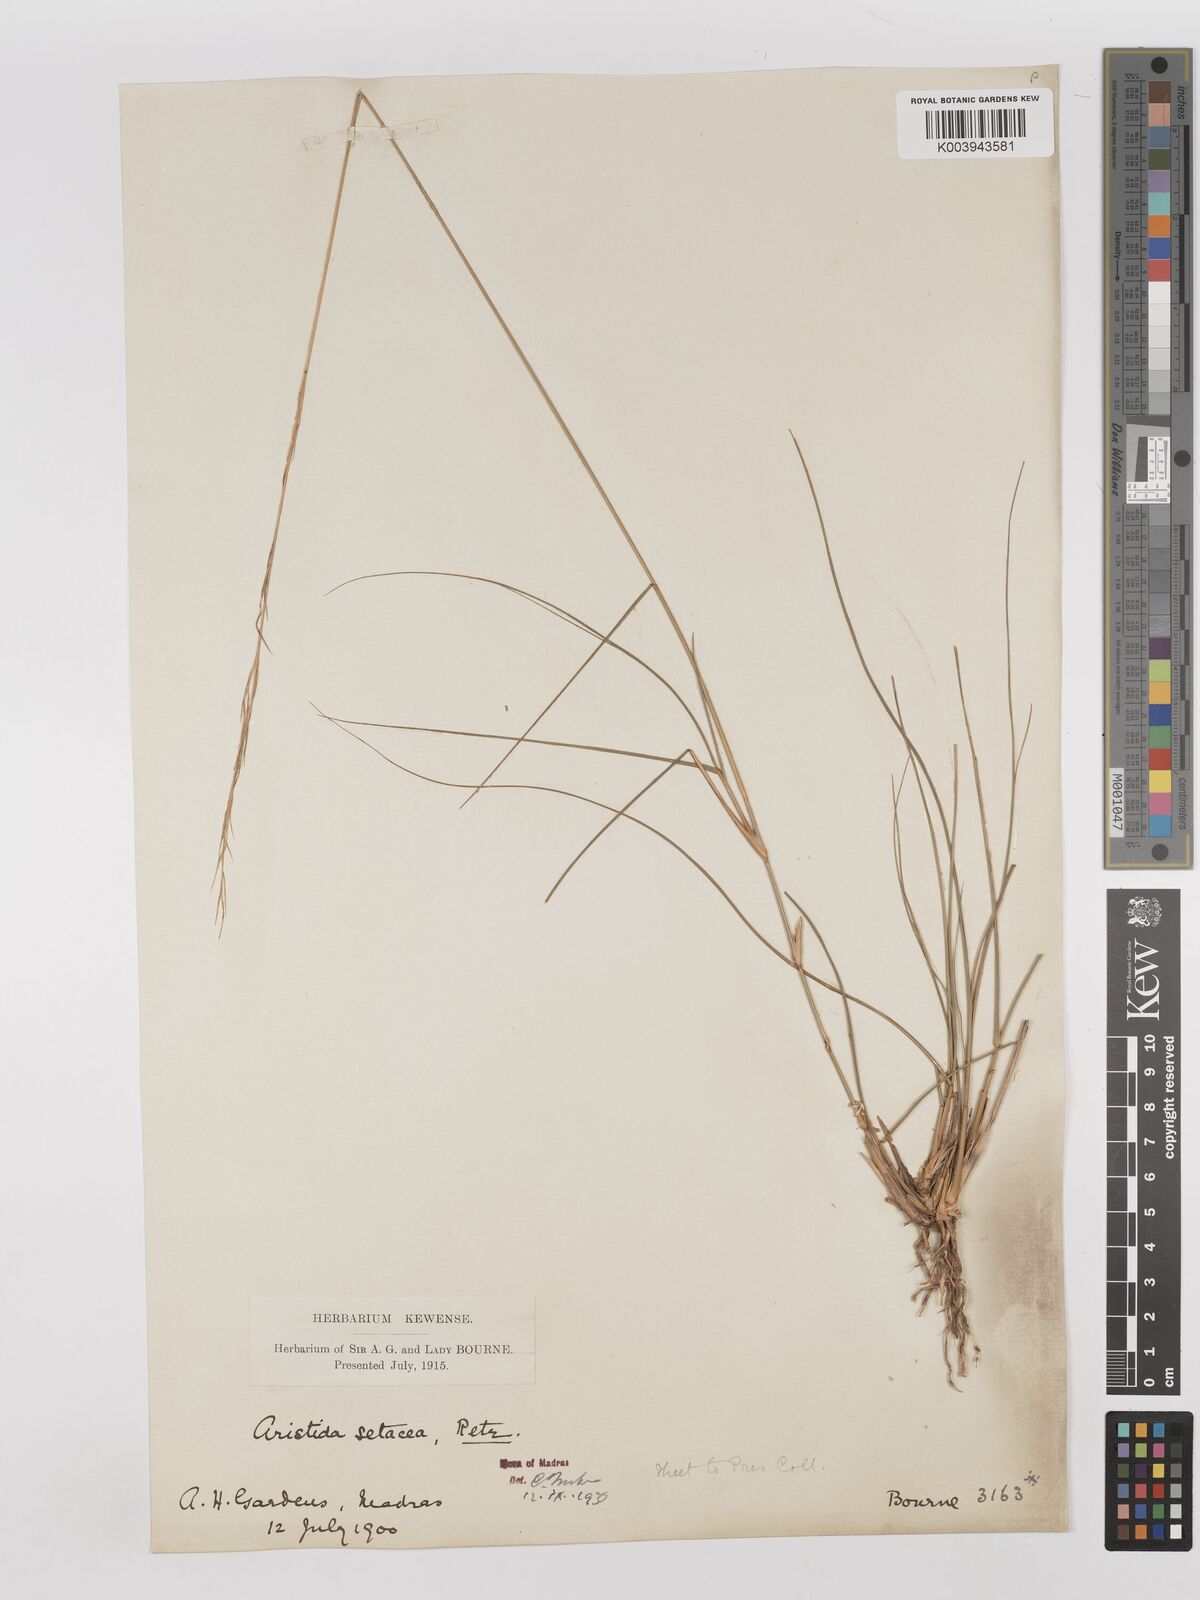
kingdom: Plantae
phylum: Tracheophyta
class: Liliopsida
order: Poales
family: Poaceae
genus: Aristida
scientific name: Aristida setacea
